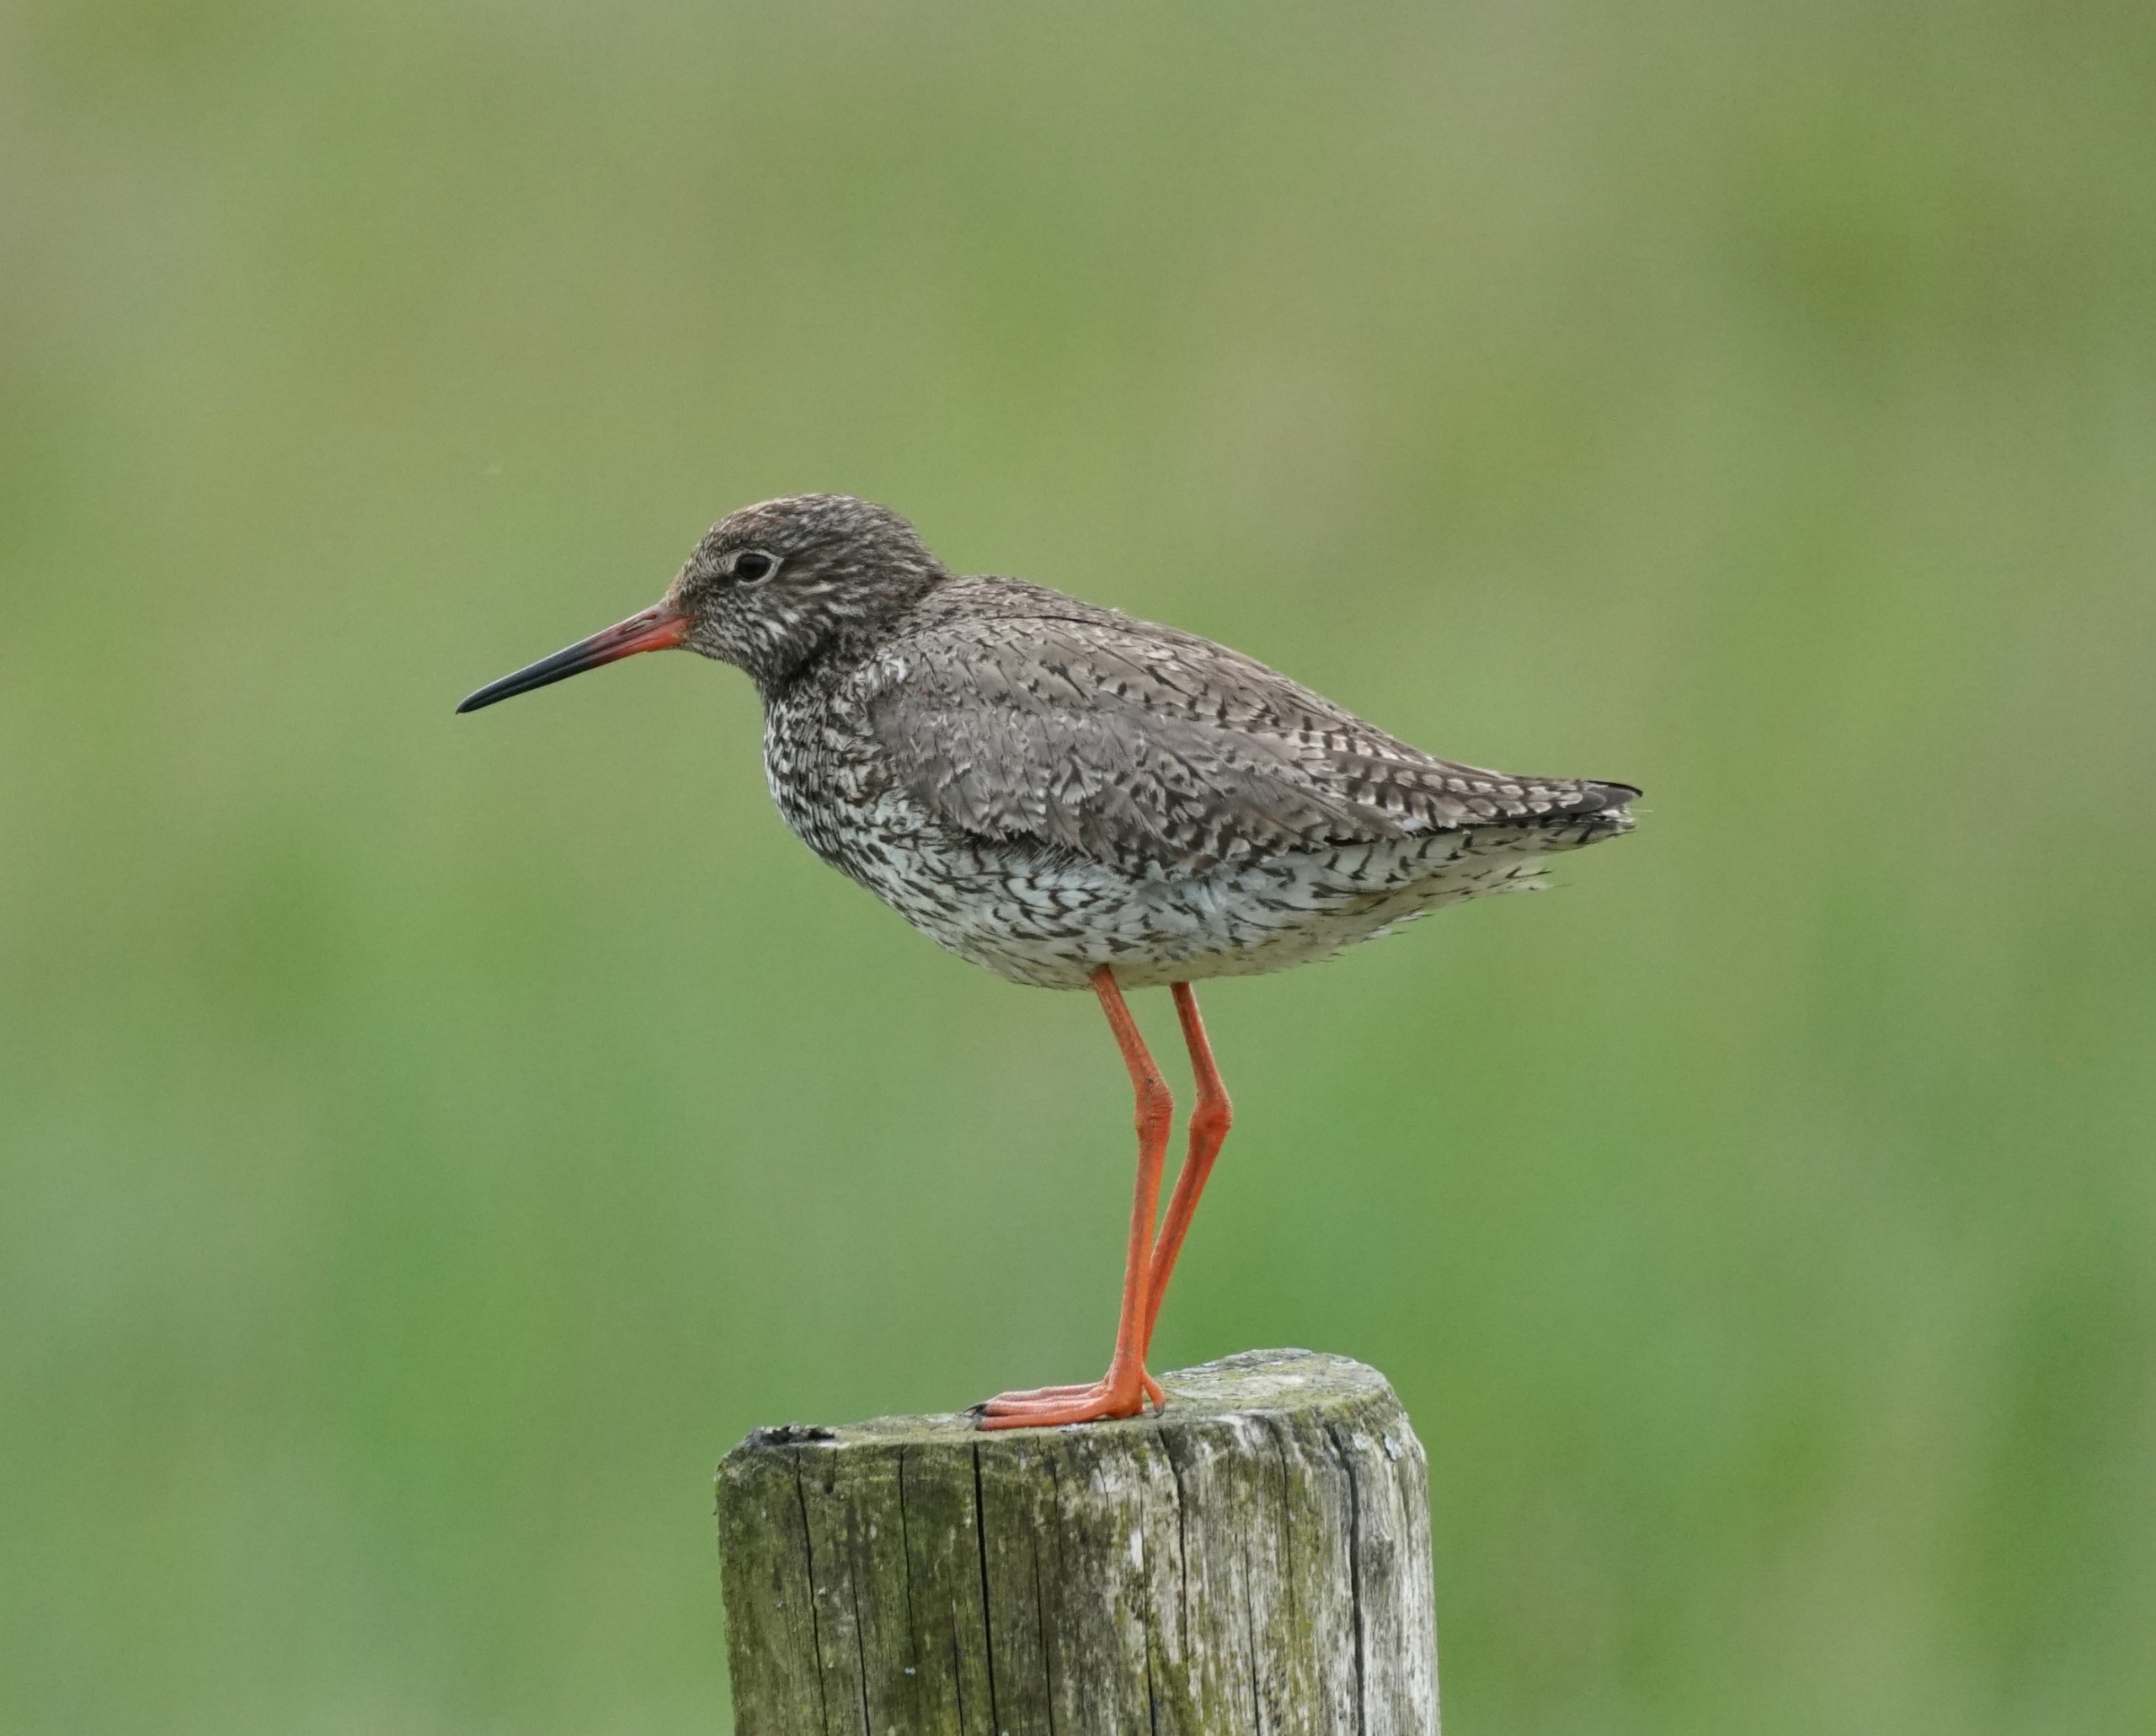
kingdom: Animalia
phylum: Chordata
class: Aves
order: Charadriiformes
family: Scolopacidae
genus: Tringa
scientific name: Tringa totanus
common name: Rødben
